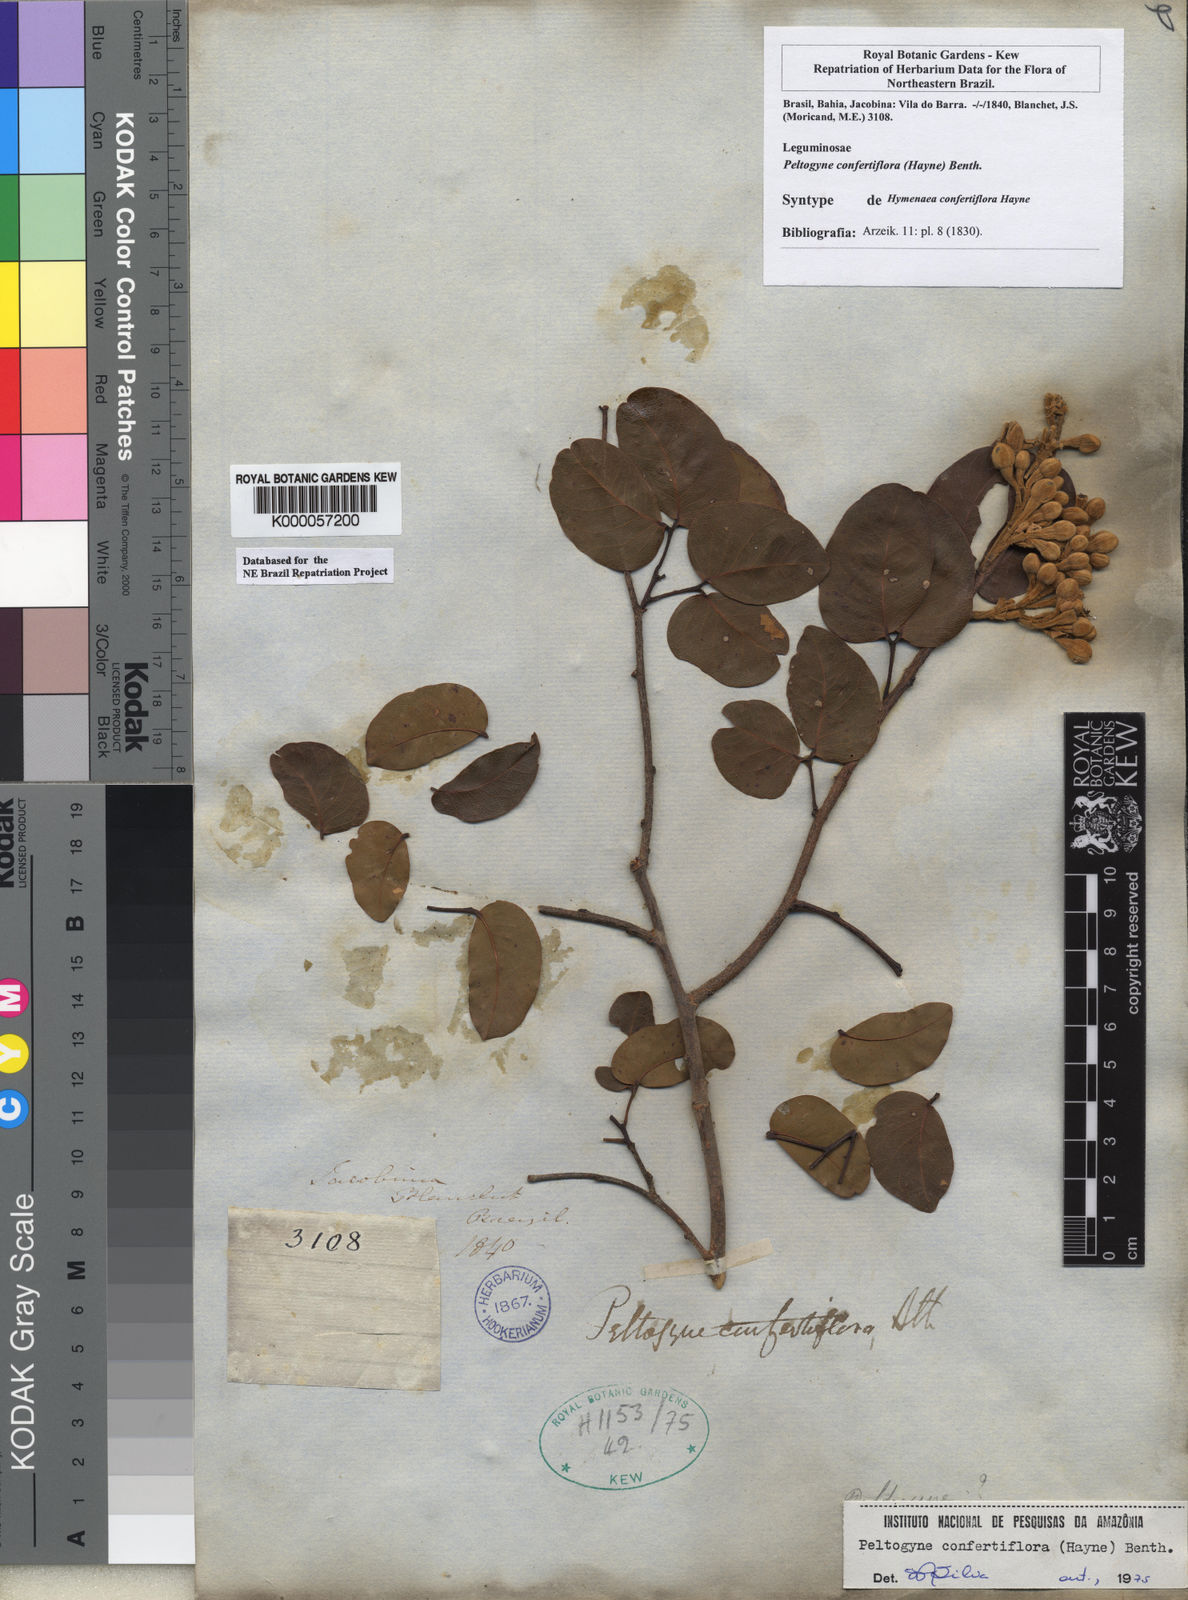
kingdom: Plantae
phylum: Tracheophyta
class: Magnoliopsida
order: Fabales
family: Fabaceae
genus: Peltogyne
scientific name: Peltogyne confertiflora
